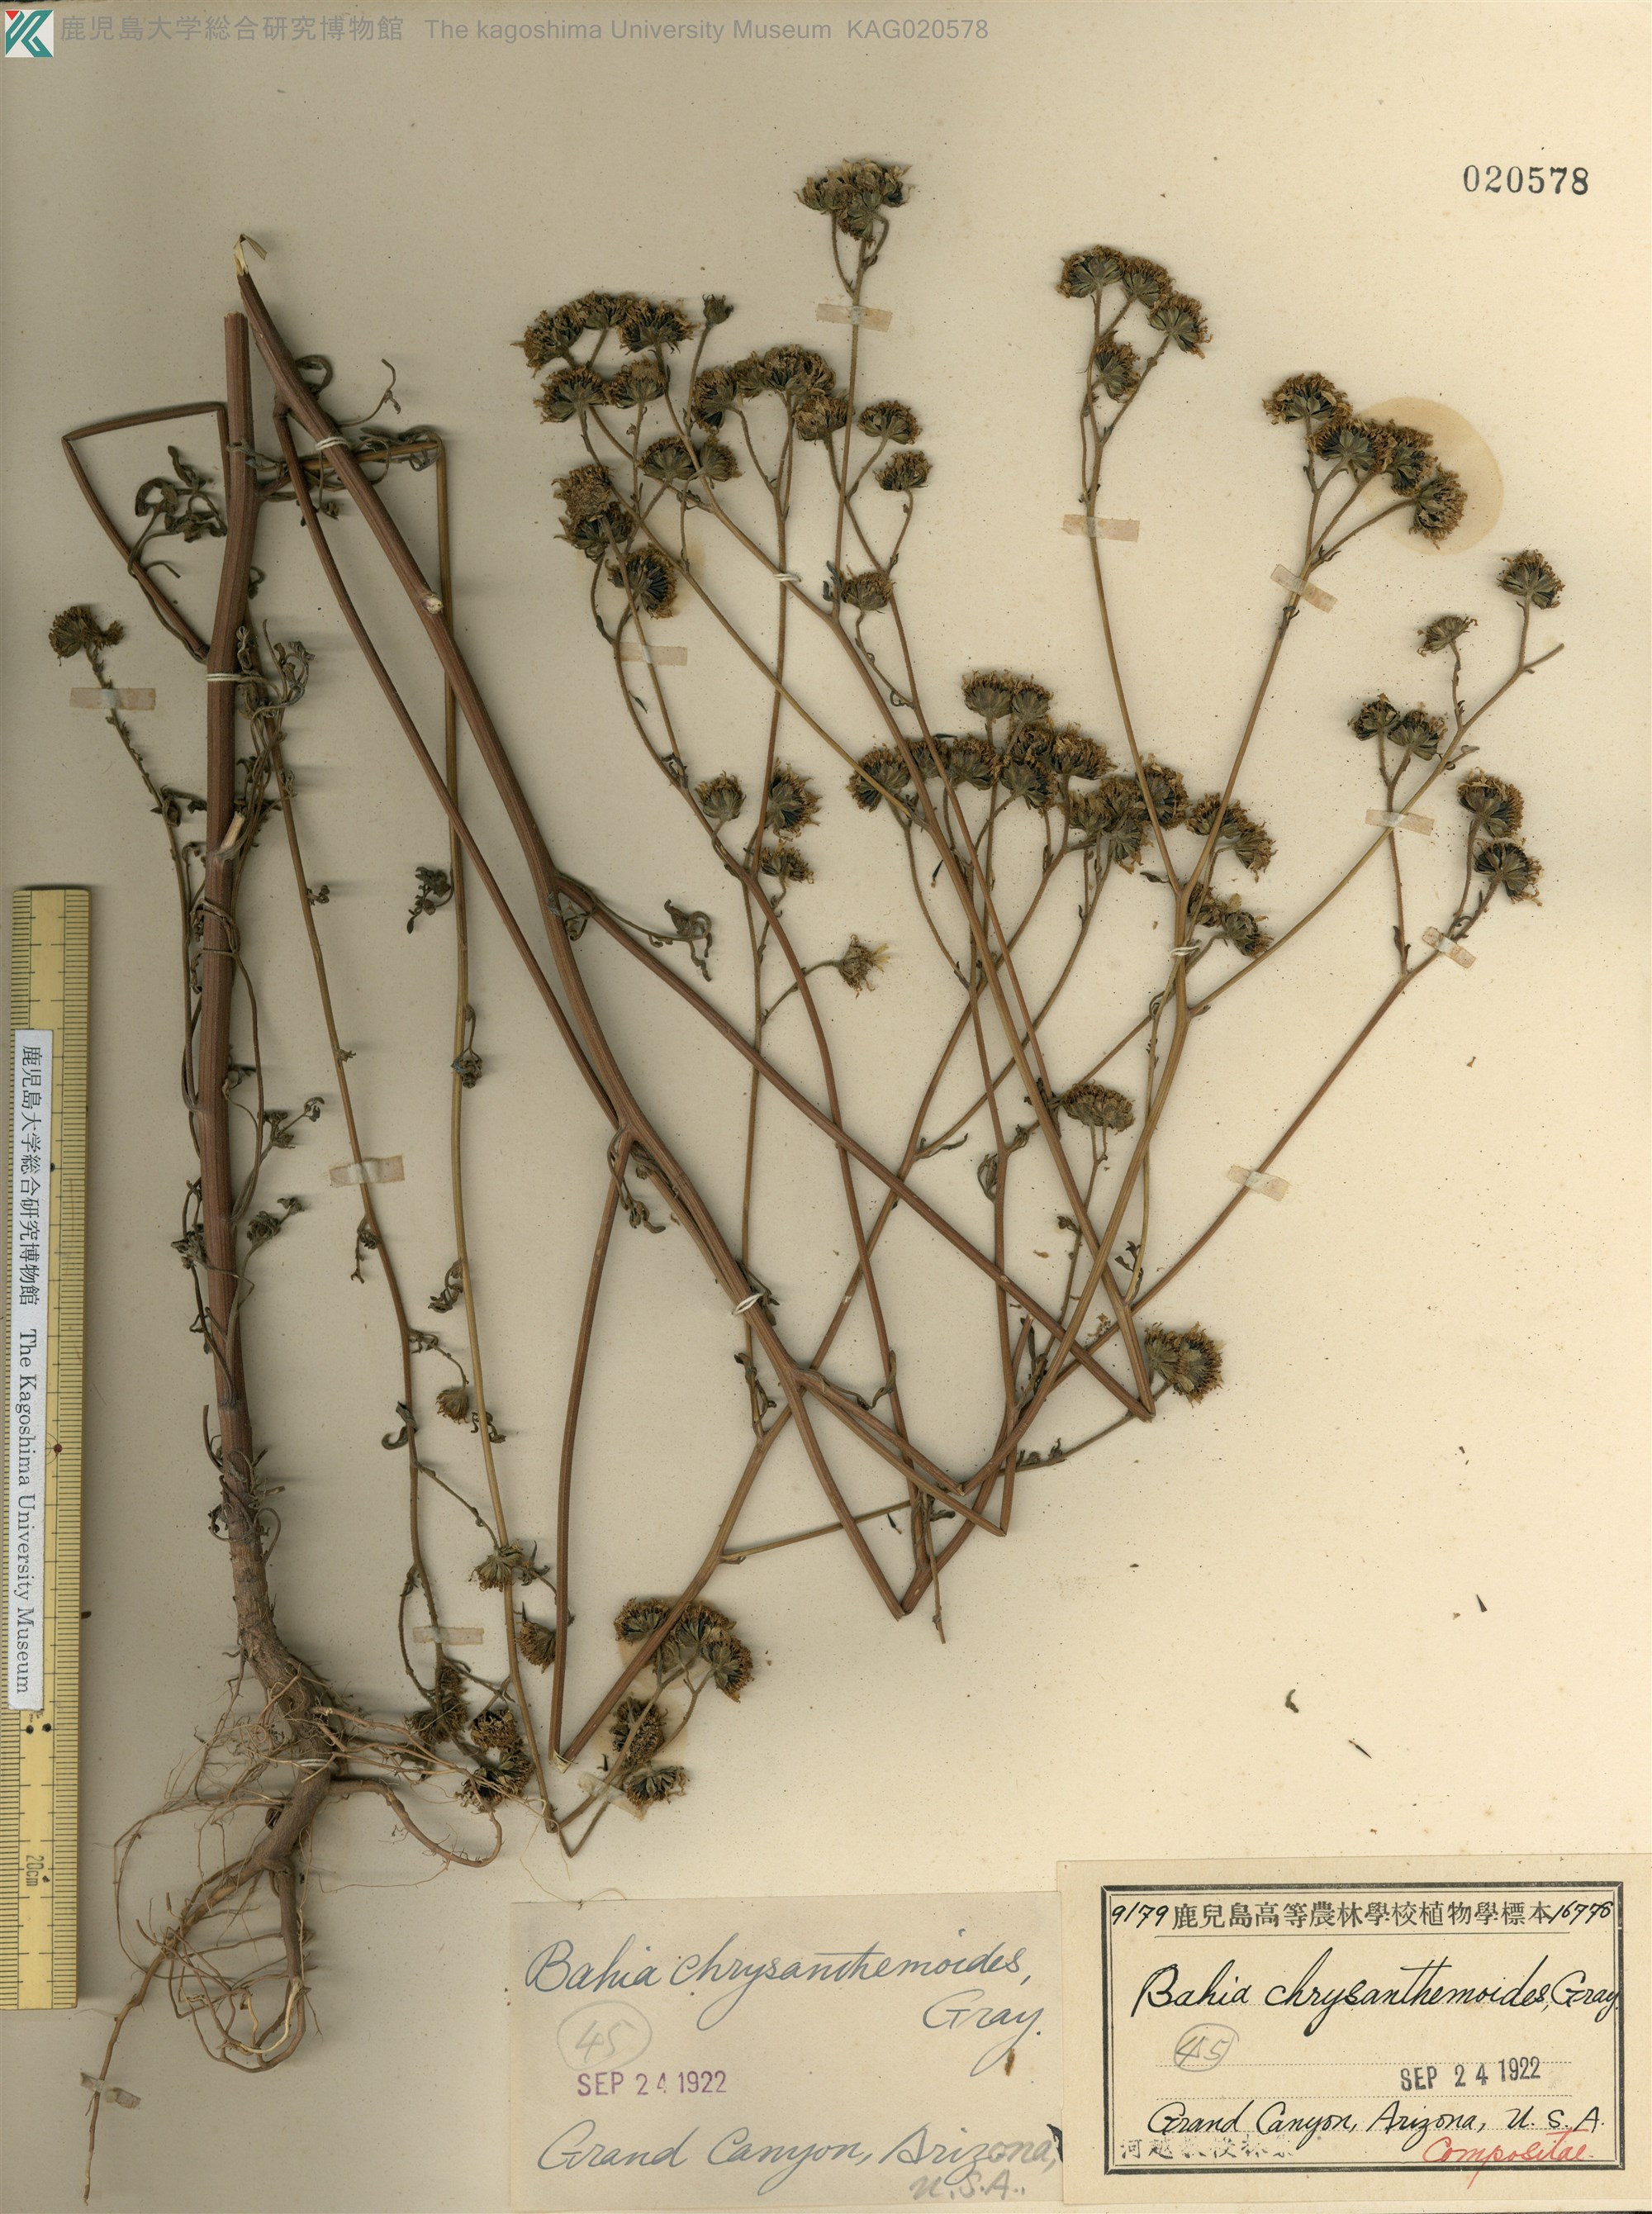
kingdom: Plantae
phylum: Tracheophyta
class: Magnoliopsida
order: Asterales
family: Asteraceae
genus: Hymenothrix
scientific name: Hymenothrix dissecta
